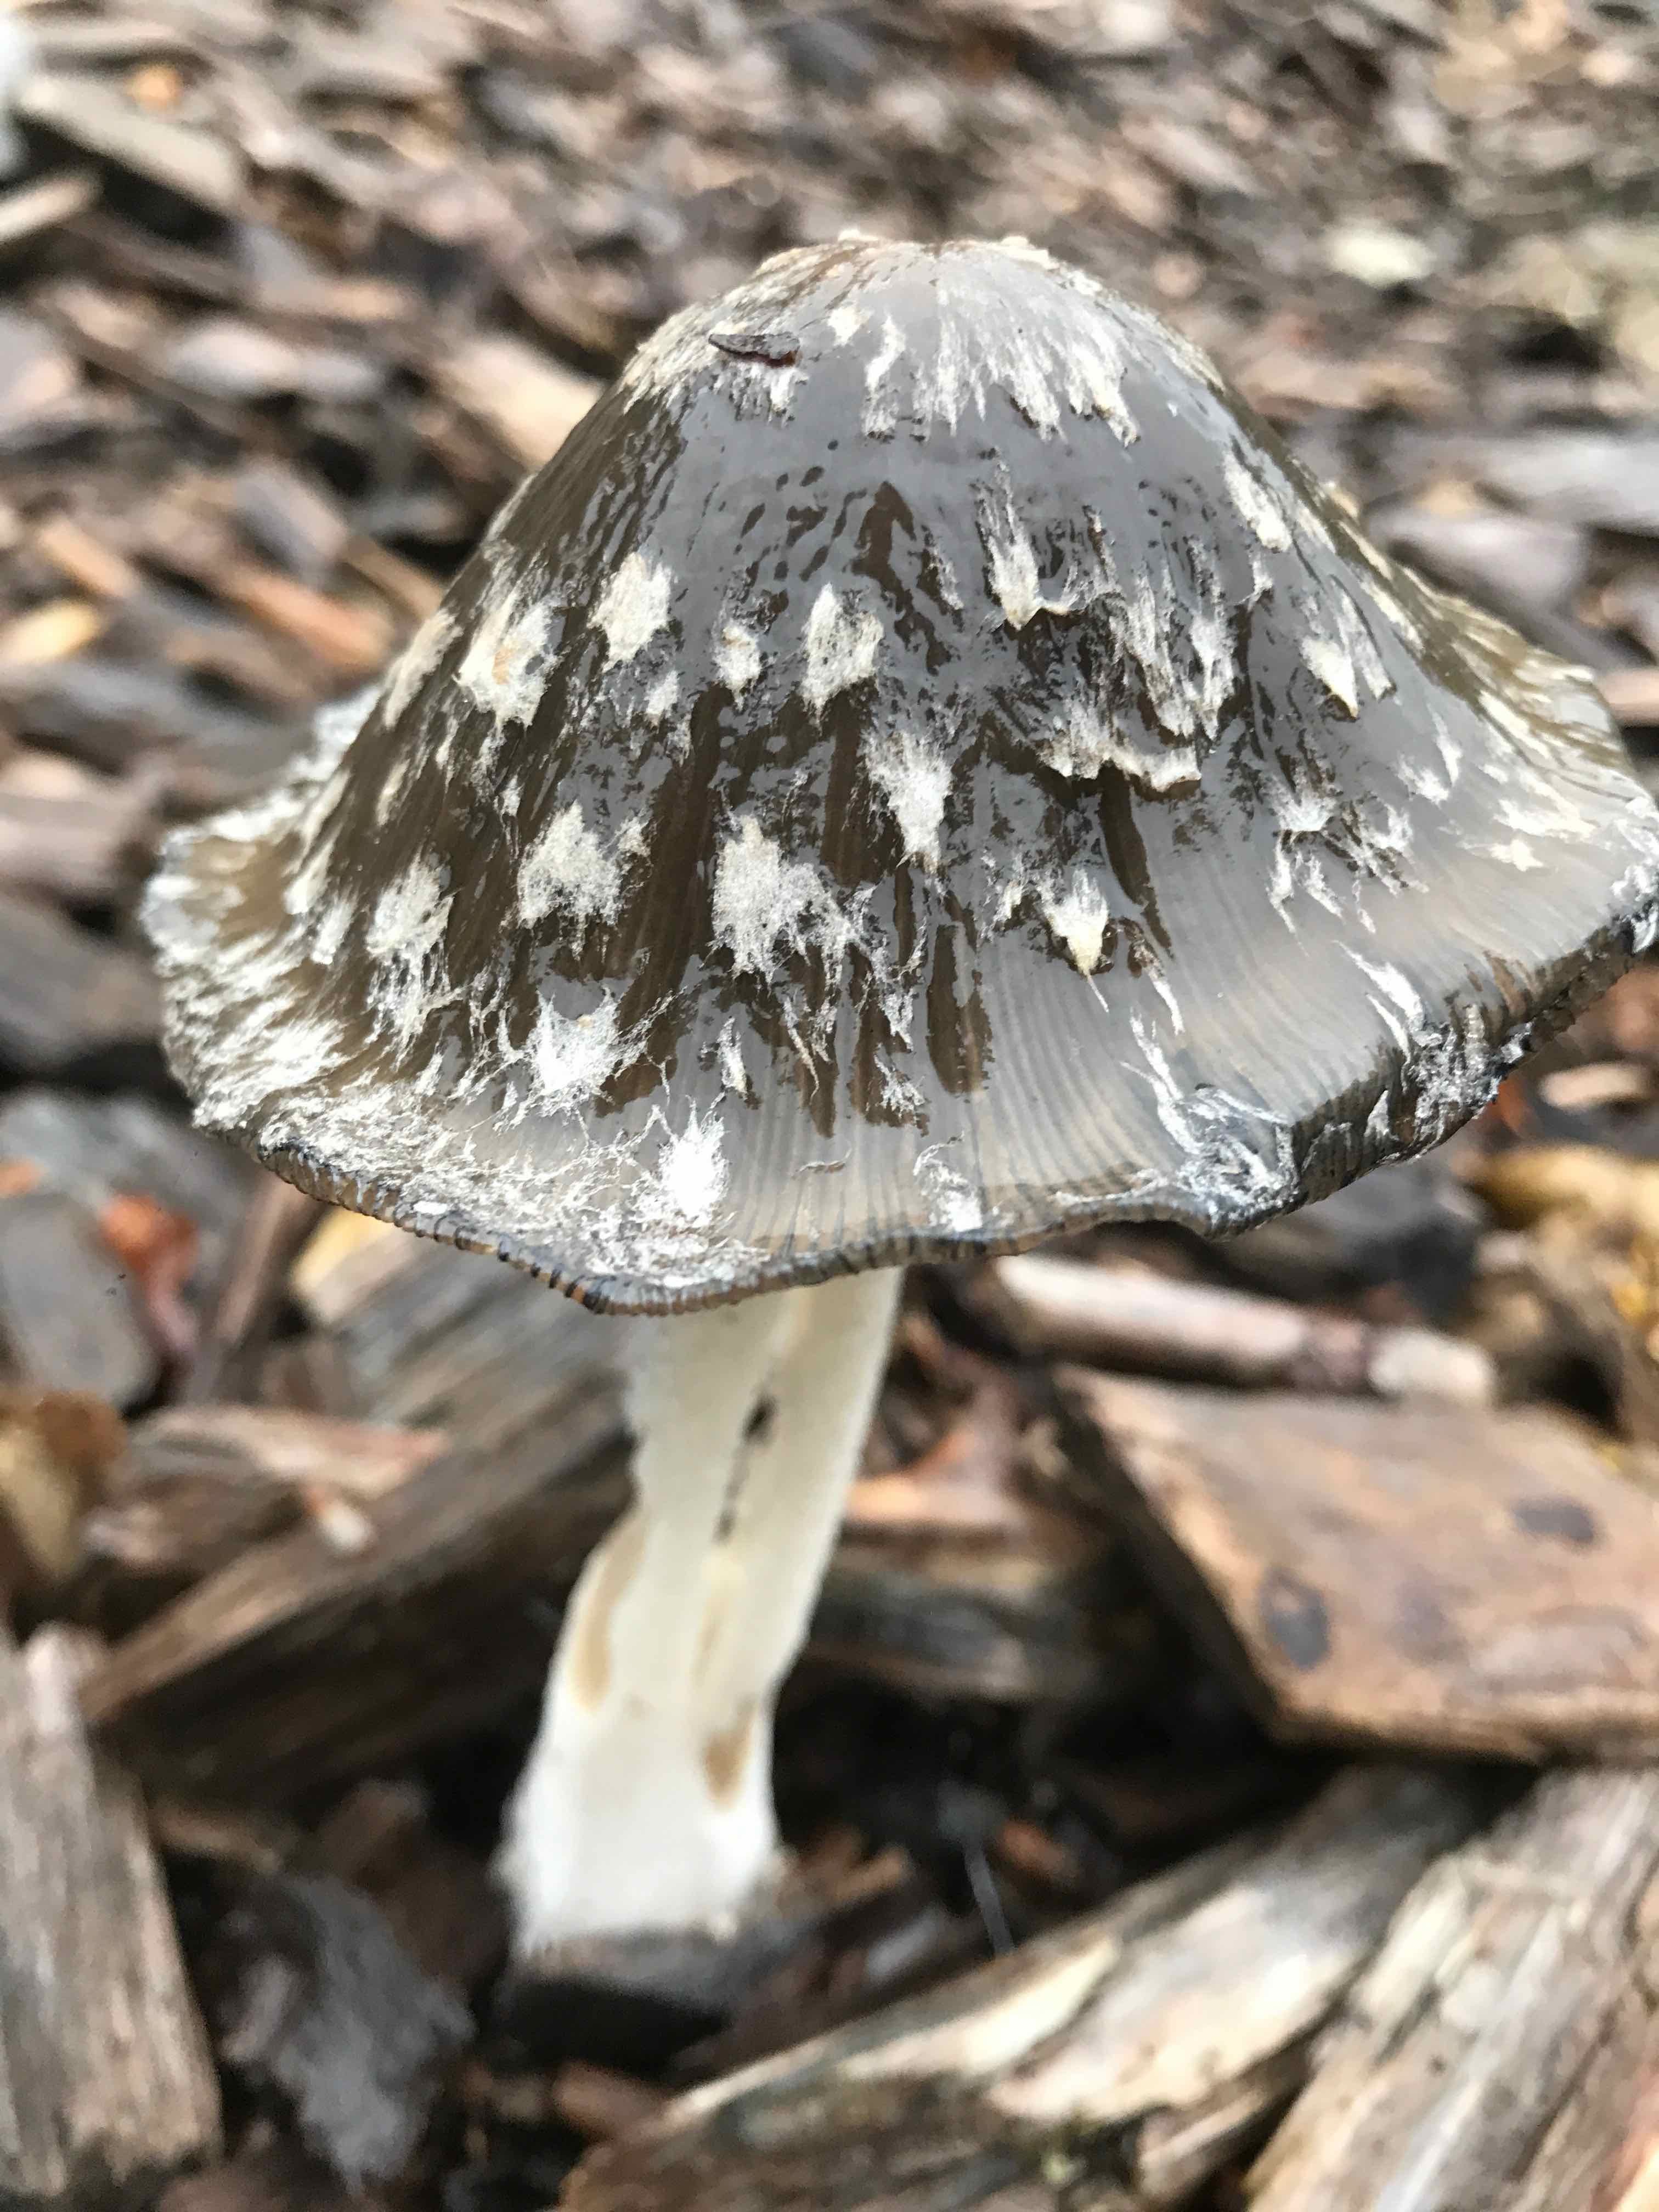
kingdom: Fungi
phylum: Basidiomycota
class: Agaricomycetes
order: Agaricales
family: Psathyrellaceae
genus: Coprinopsis
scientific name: Coprinopsis picacea
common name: skade-blækhat
